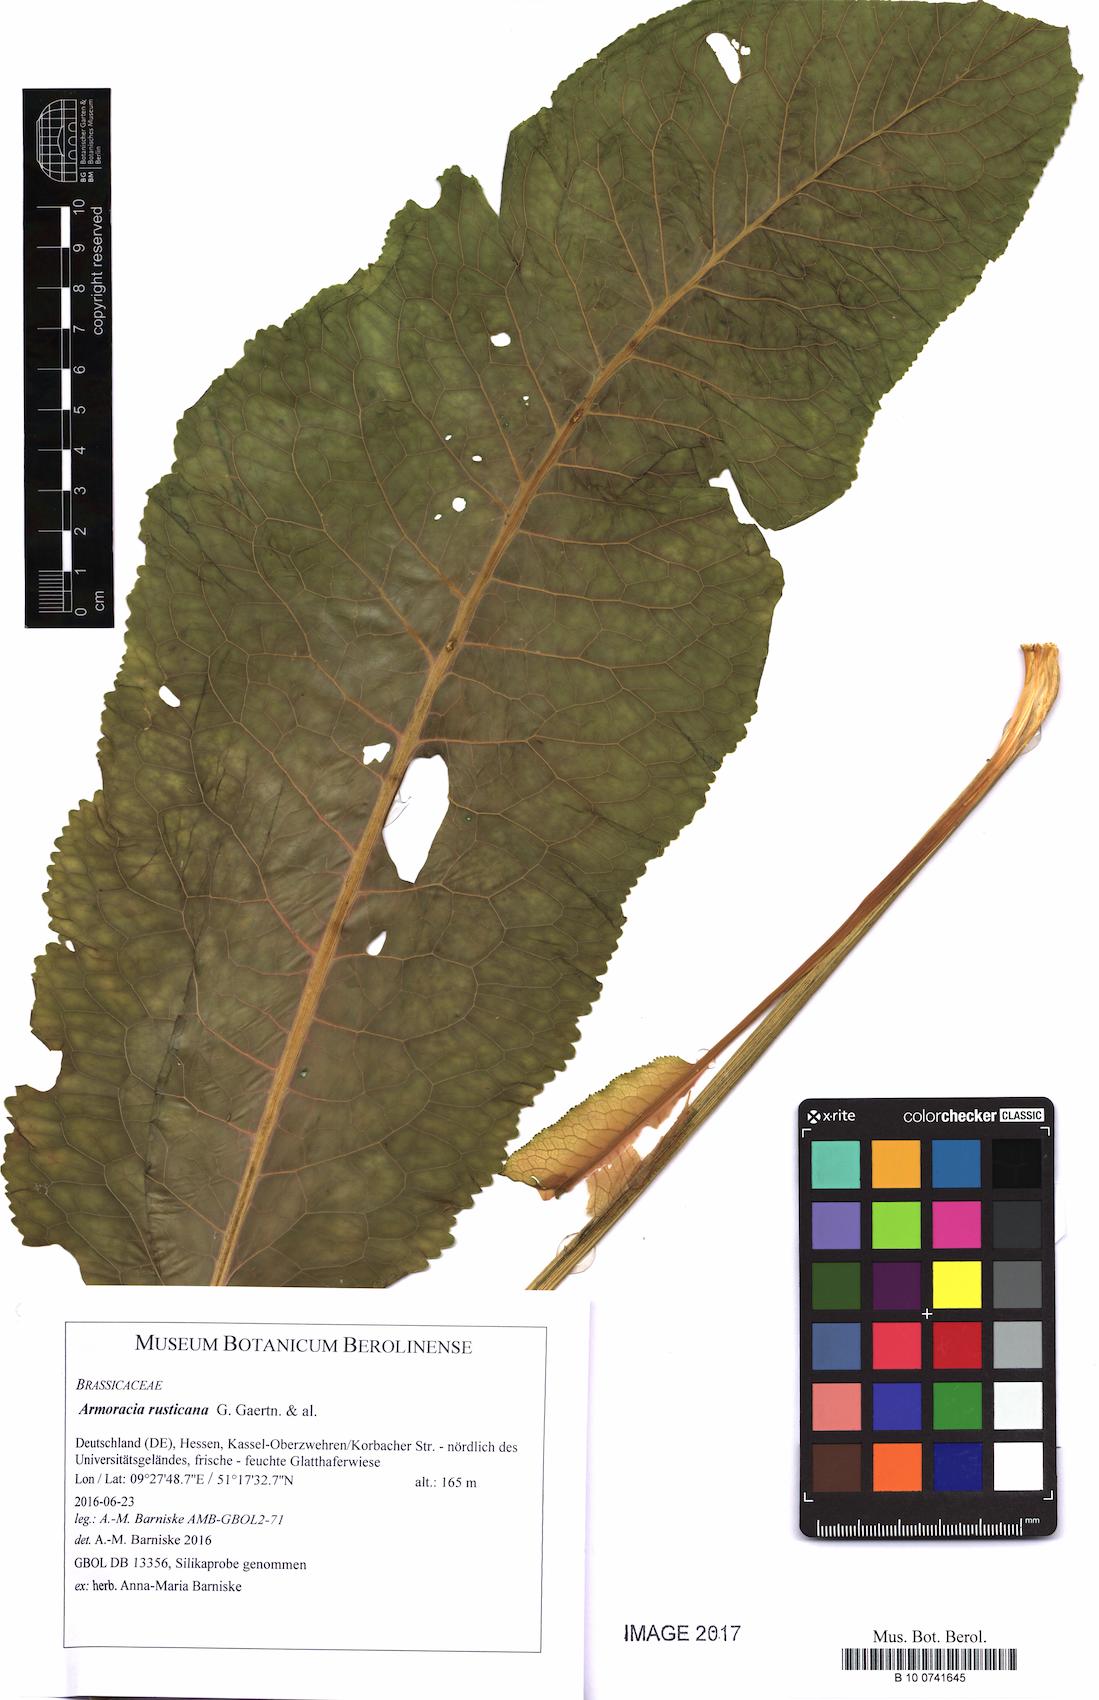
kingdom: Plantae
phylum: Tracheophyta
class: Magnoliopsida
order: Brassicales
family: Brassicaceae
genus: Armoracia
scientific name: Armoracia rusticana
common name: Horseradish
